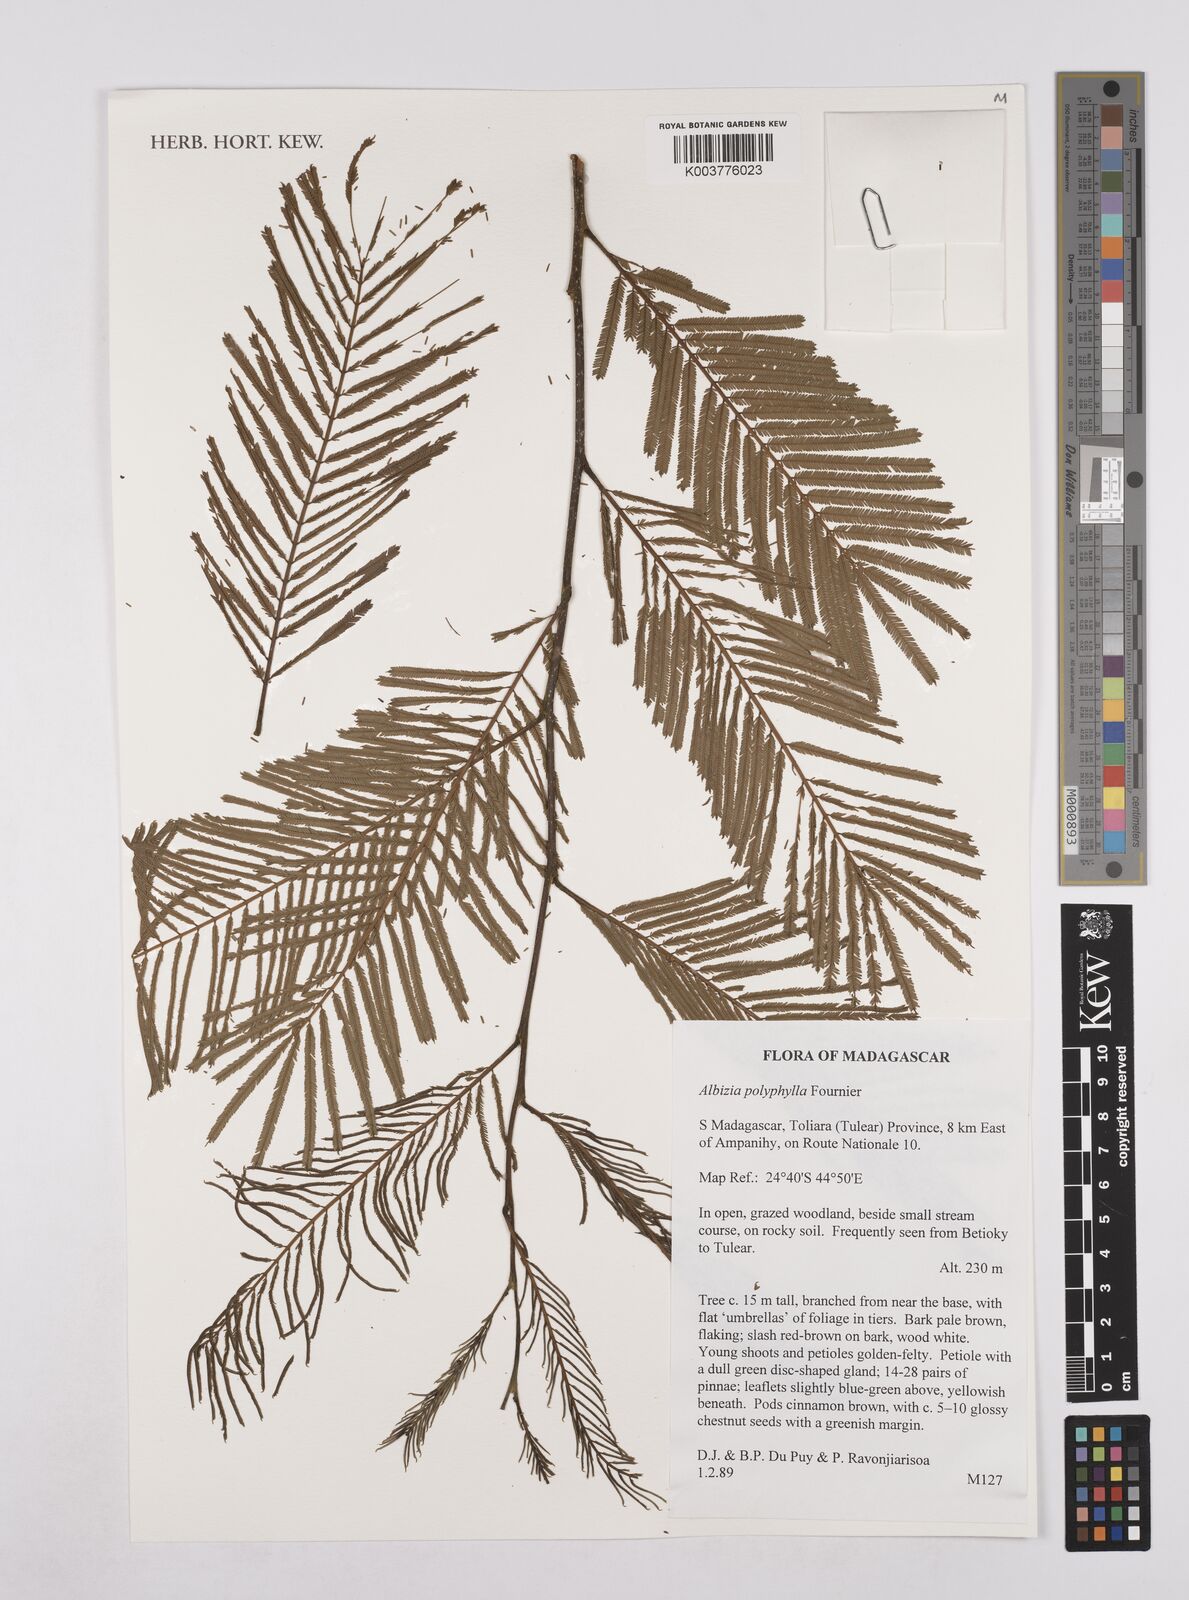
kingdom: Plantae
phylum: Tracheophyta
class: Magnoliopsida
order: Fabales
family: Fabaceae
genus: Albizia
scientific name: Albizia polyphylla
